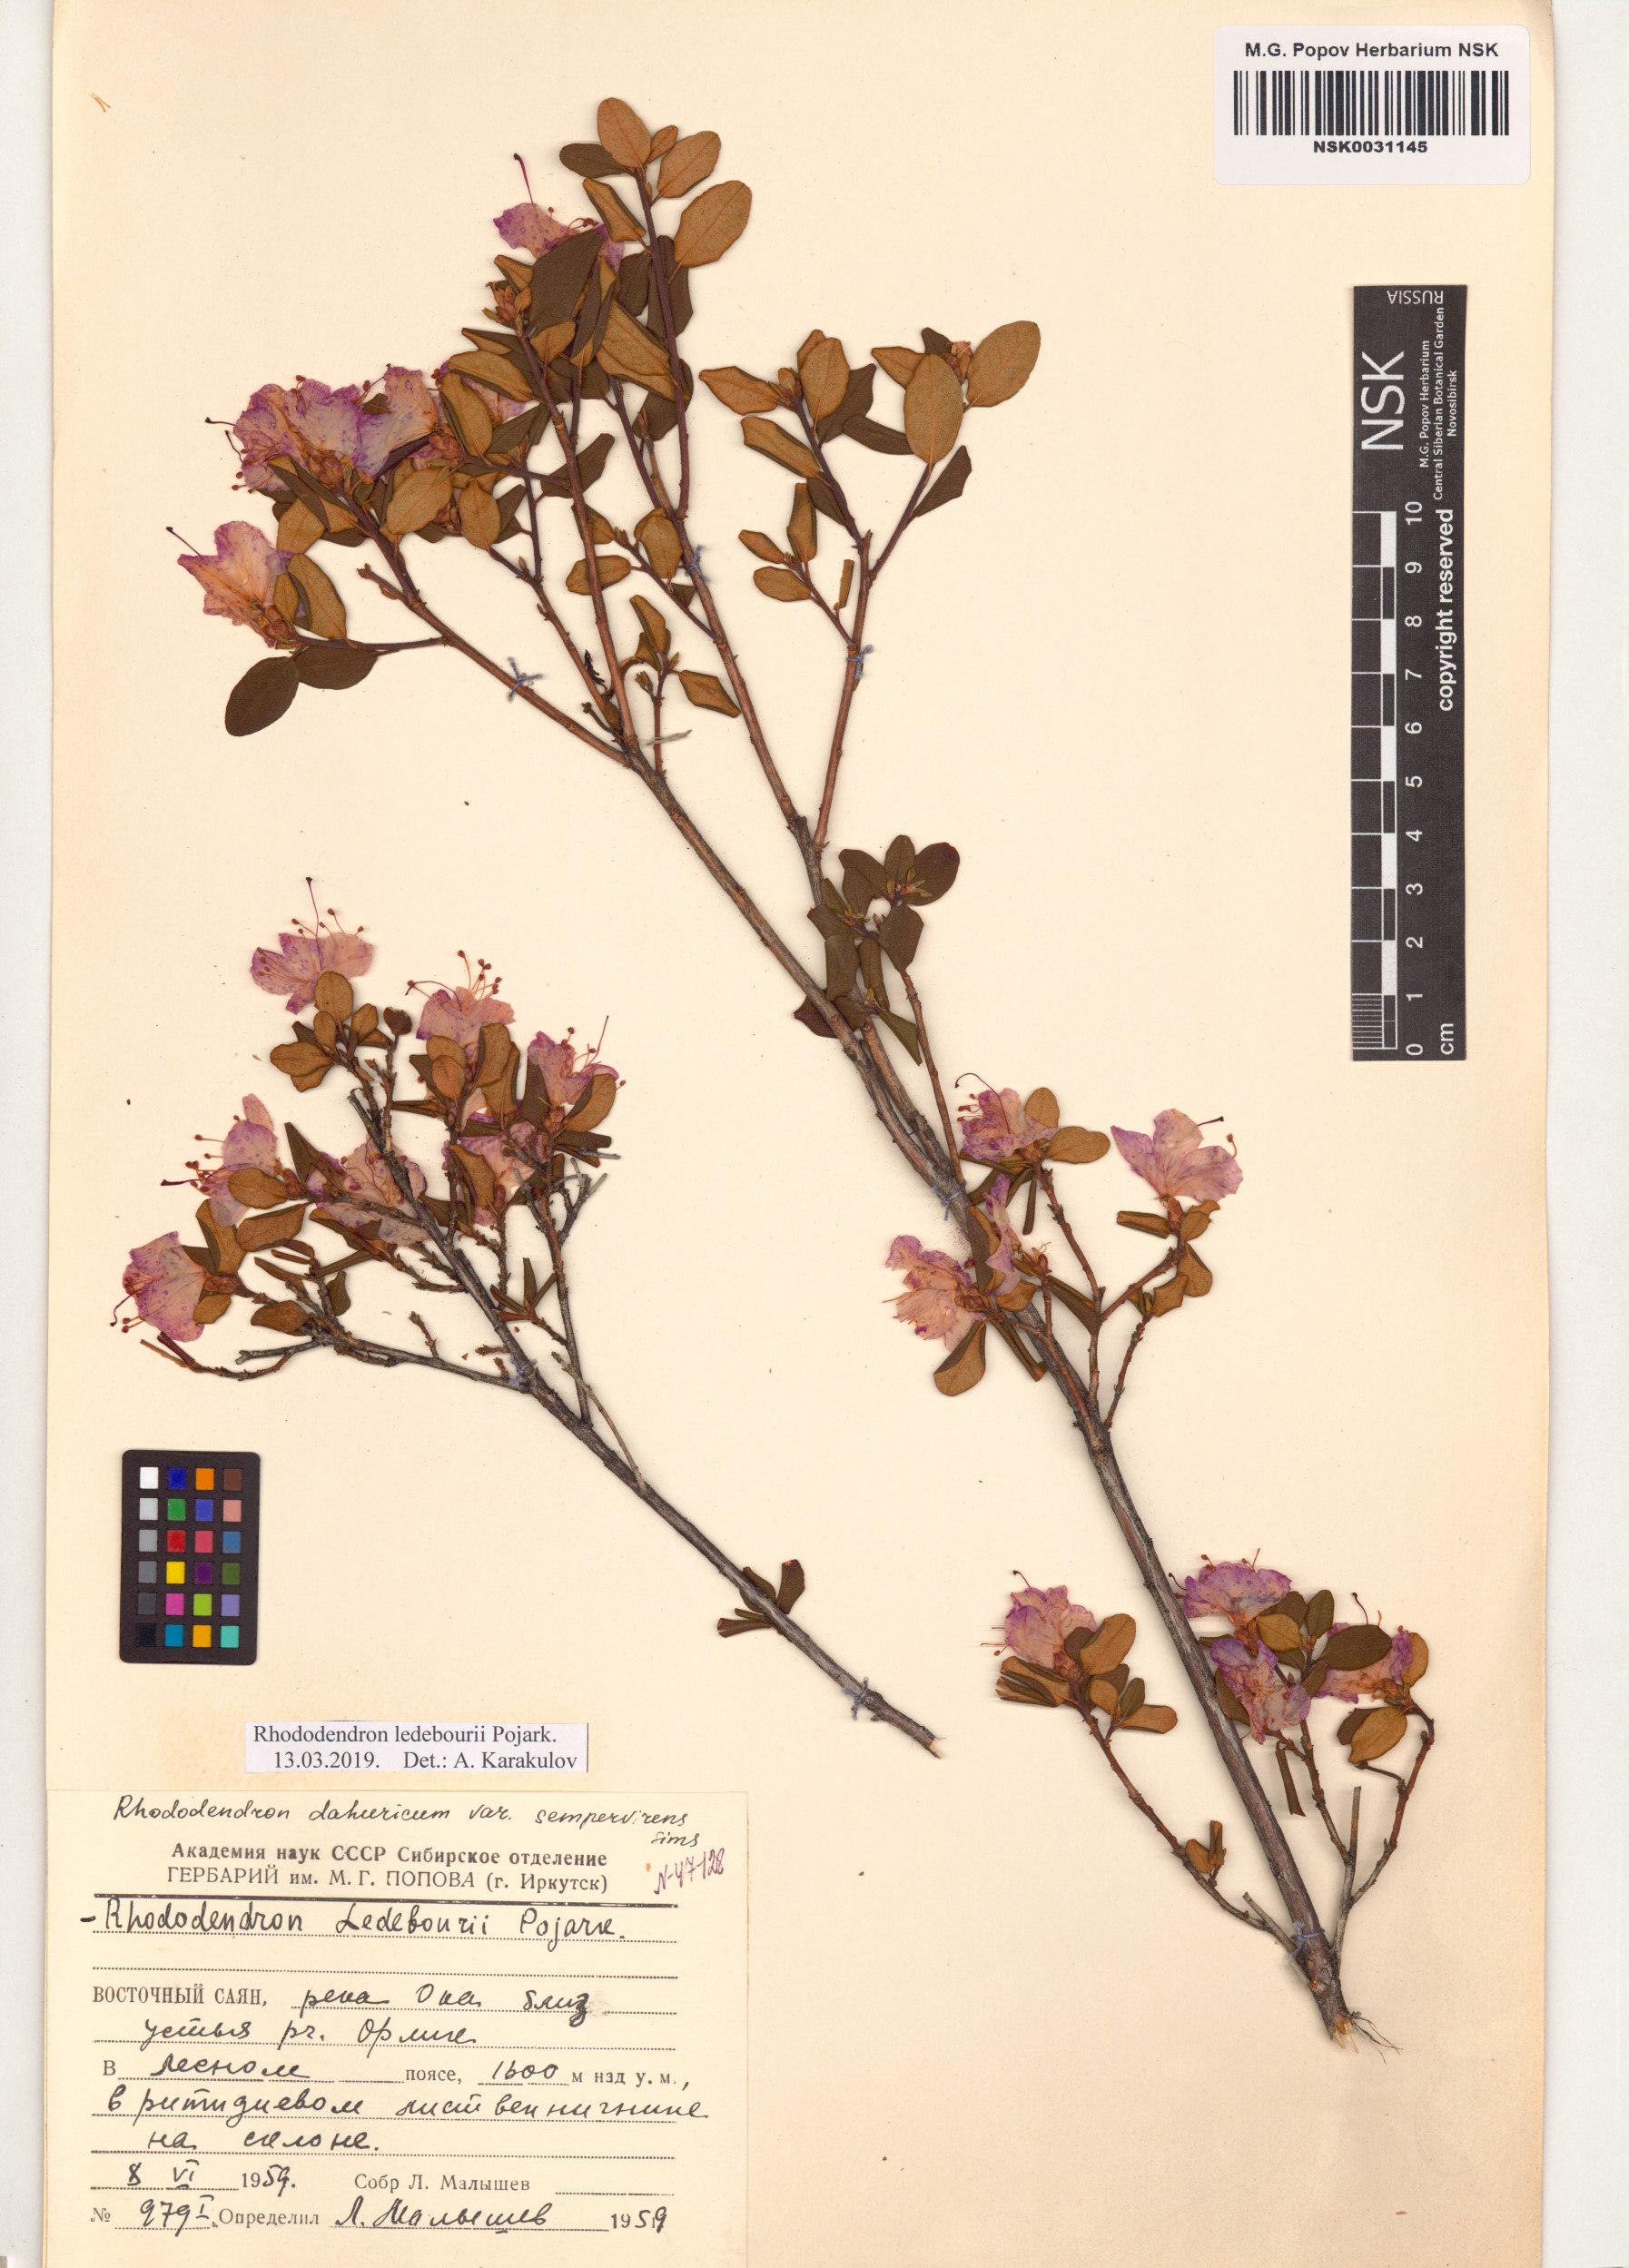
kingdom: Plantae
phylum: Tracheophyta
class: Magnoliopsida
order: Ericales
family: Ericaceae
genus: Rhododendron
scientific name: Rhododendron dauricum
